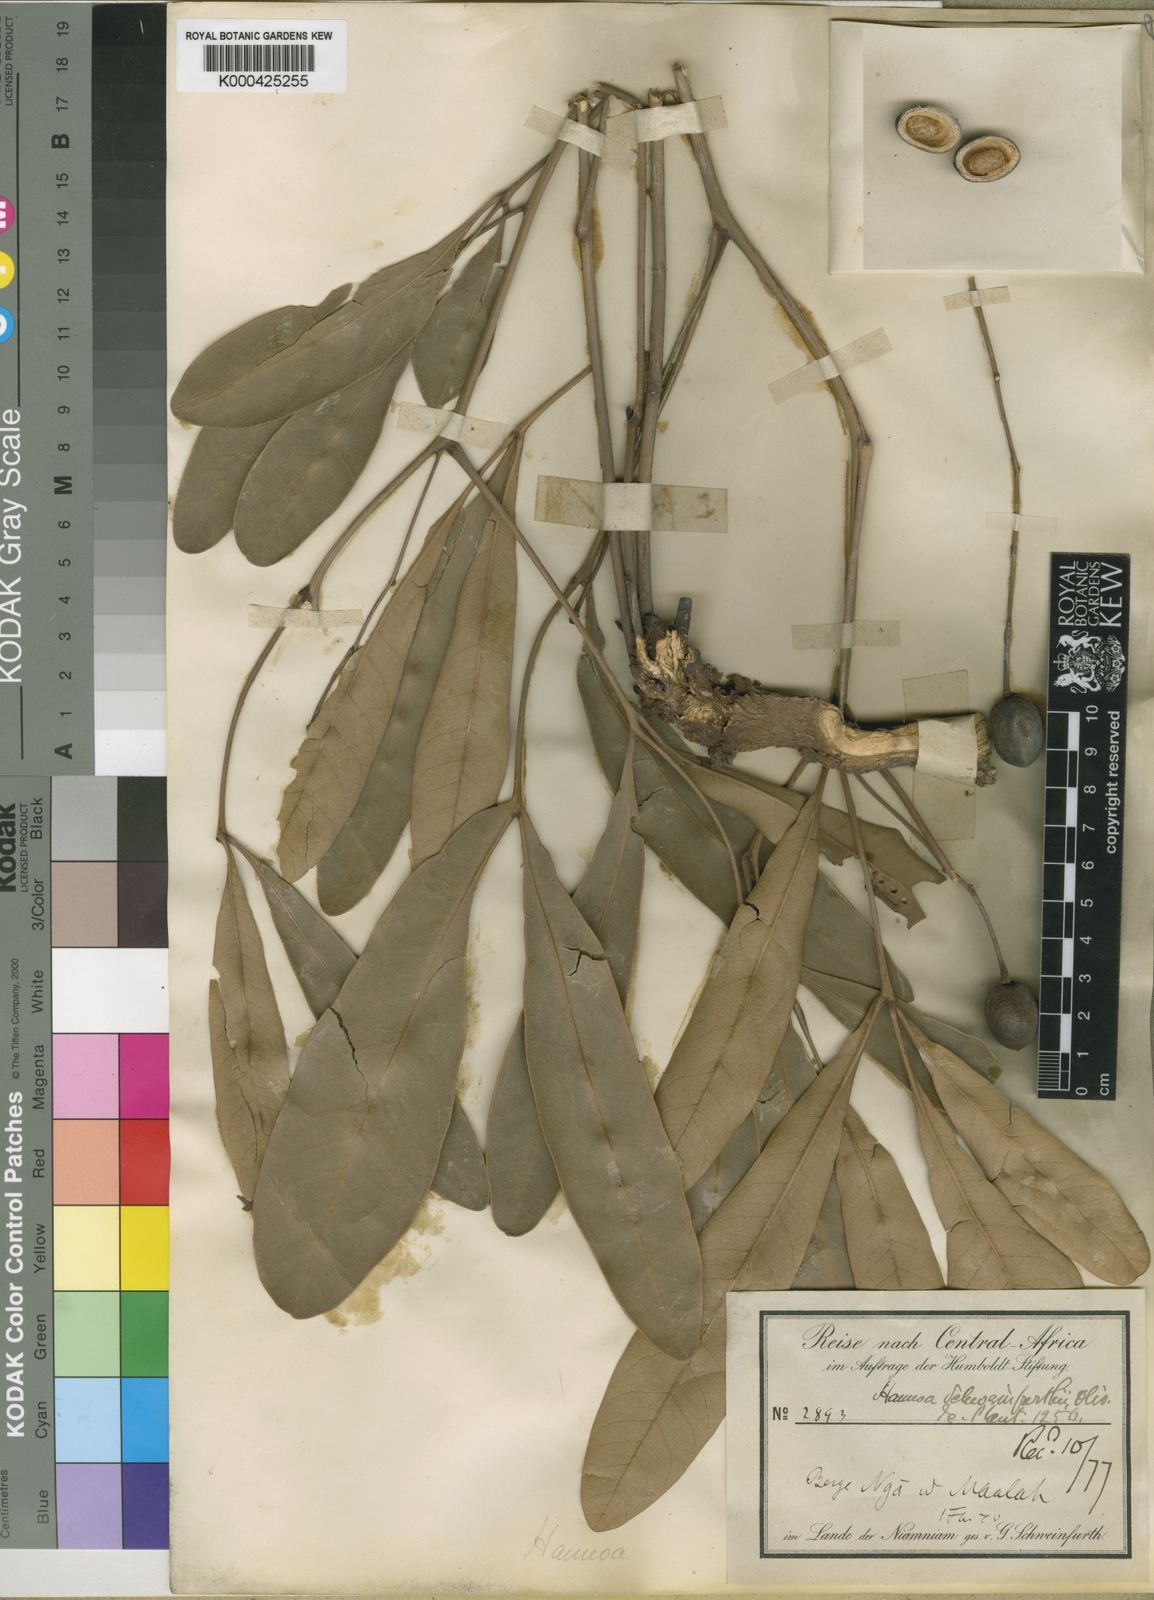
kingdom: Plantae
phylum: Tracheophyta
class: Magnoliopsida
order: Sapindales
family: Simaroubaceae
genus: Hannoa
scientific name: Hannoa schweinfurthii
